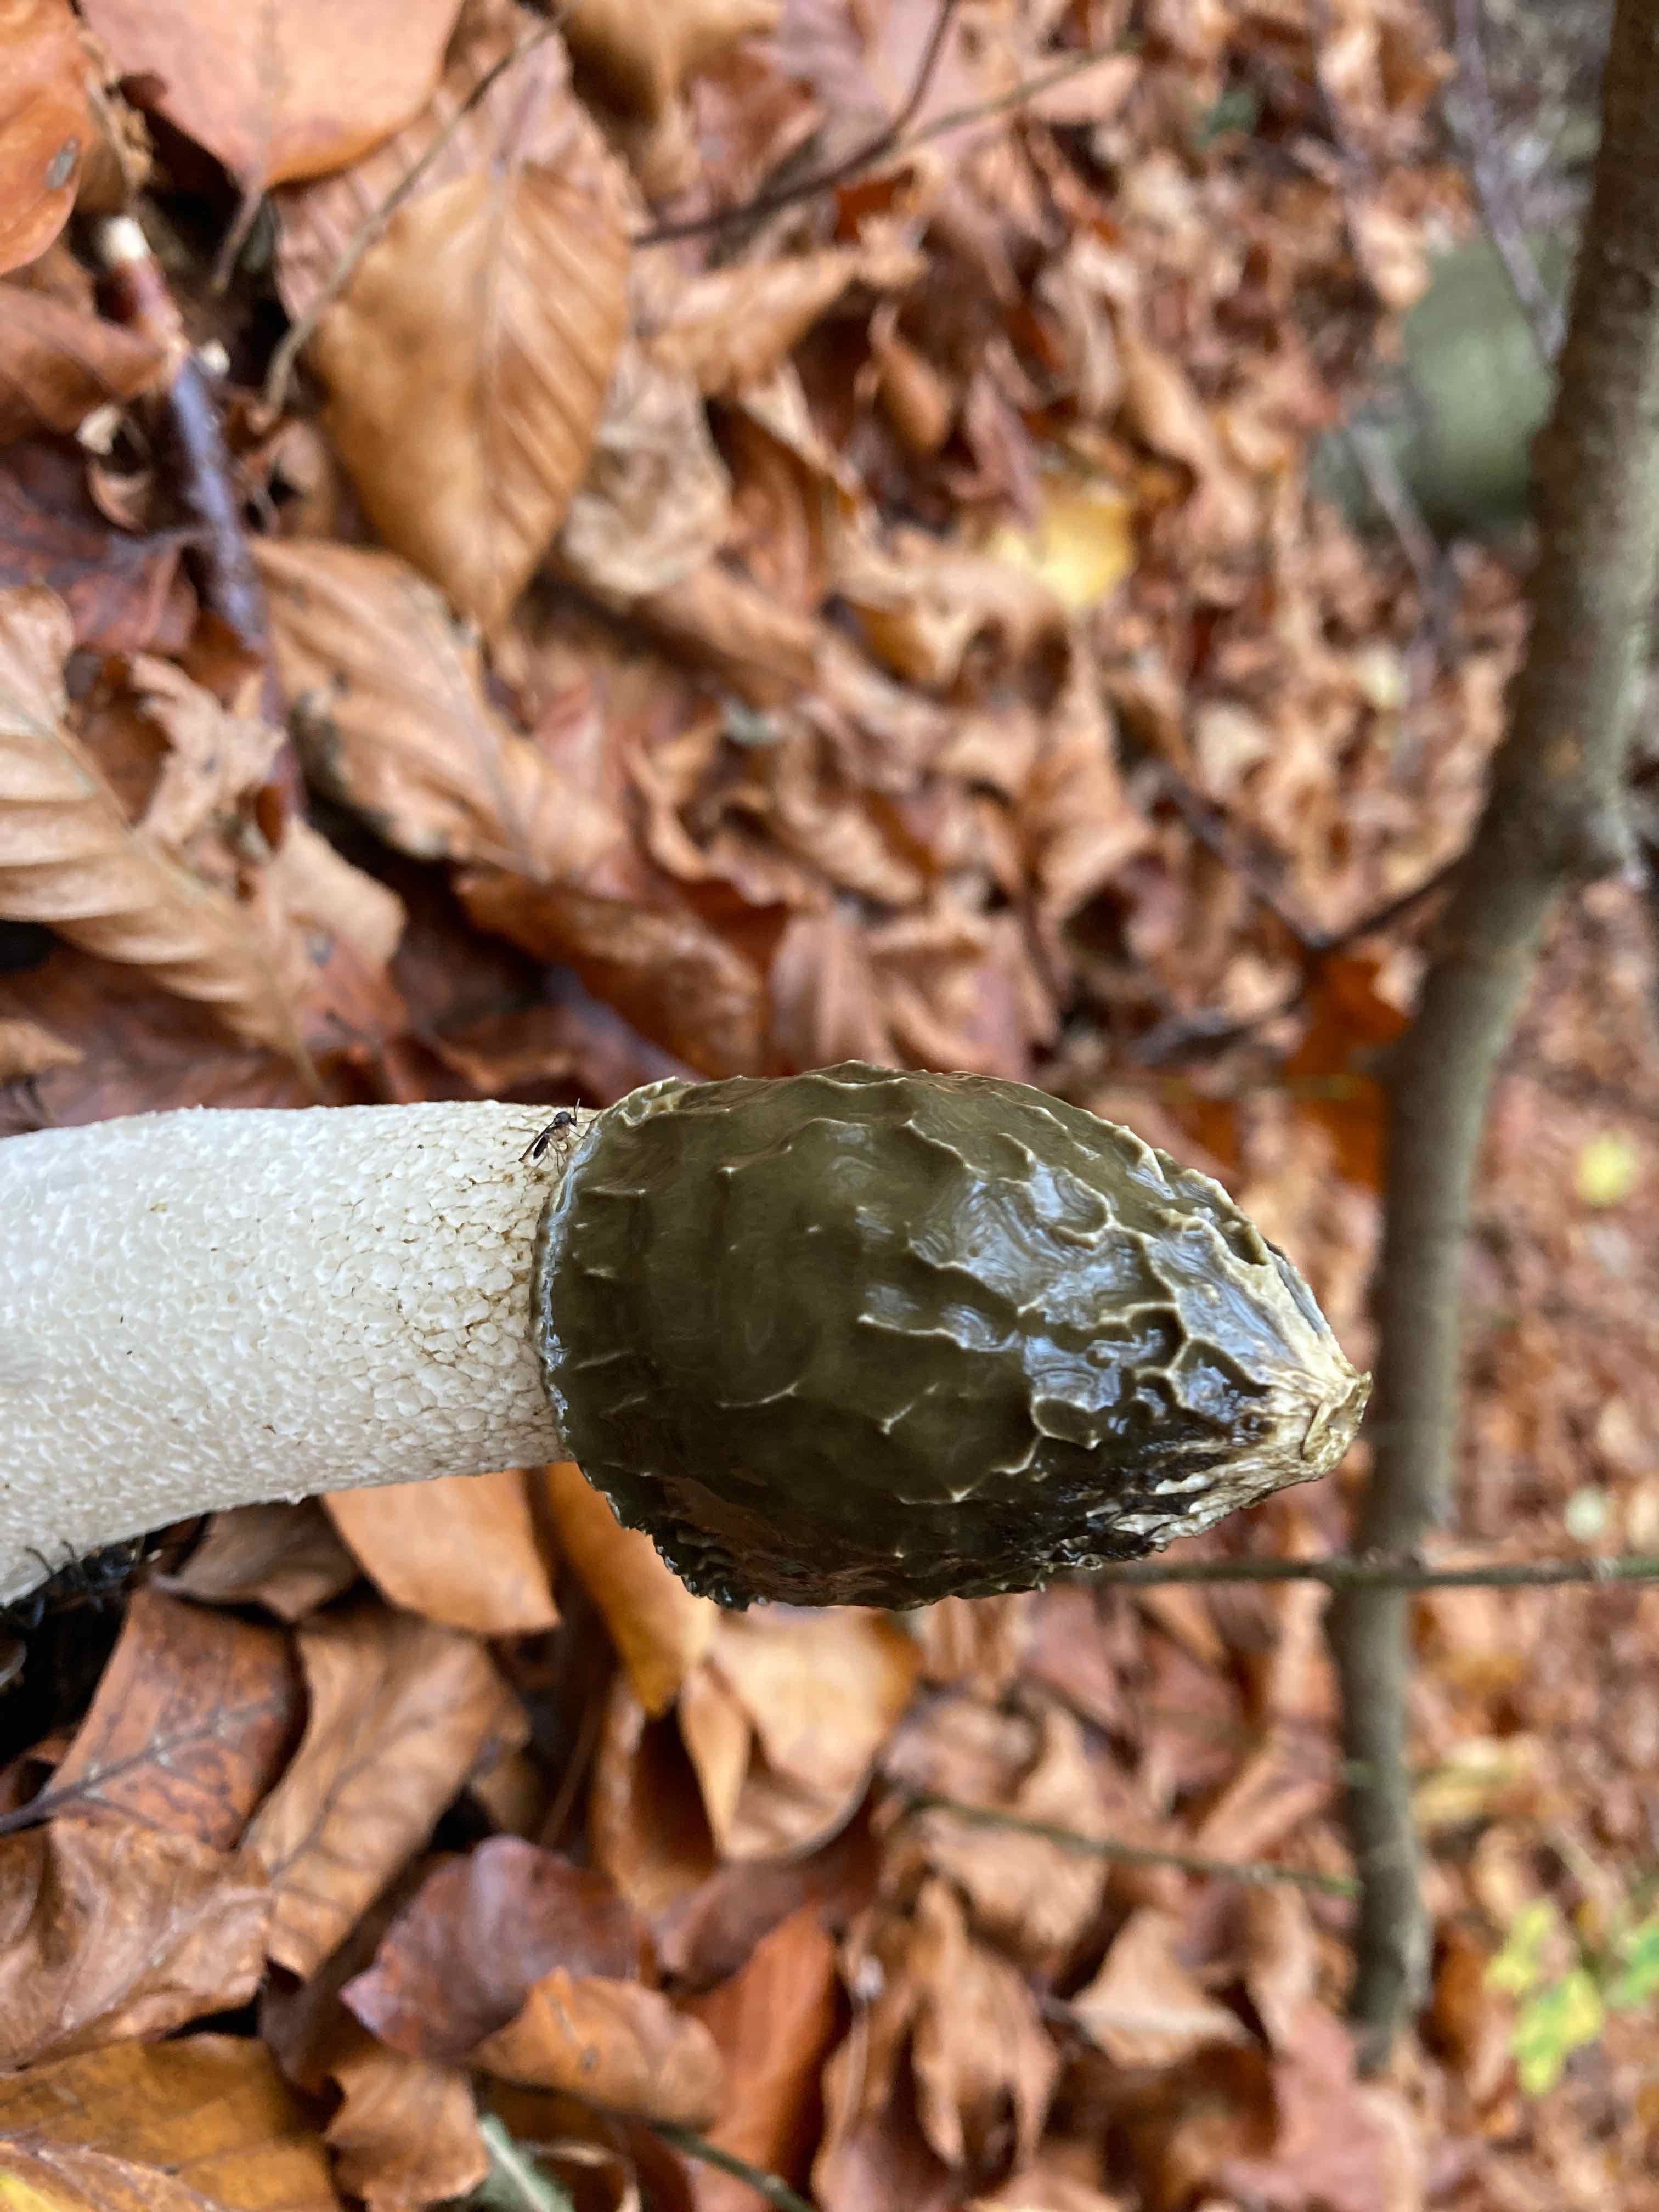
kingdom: Fungi
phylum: Basidiomycota
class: Agaricomycetes
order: Phallales
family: Phallaceae
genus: Phallus
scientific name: Phallus impudicus
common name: almindelig stinksvamp
